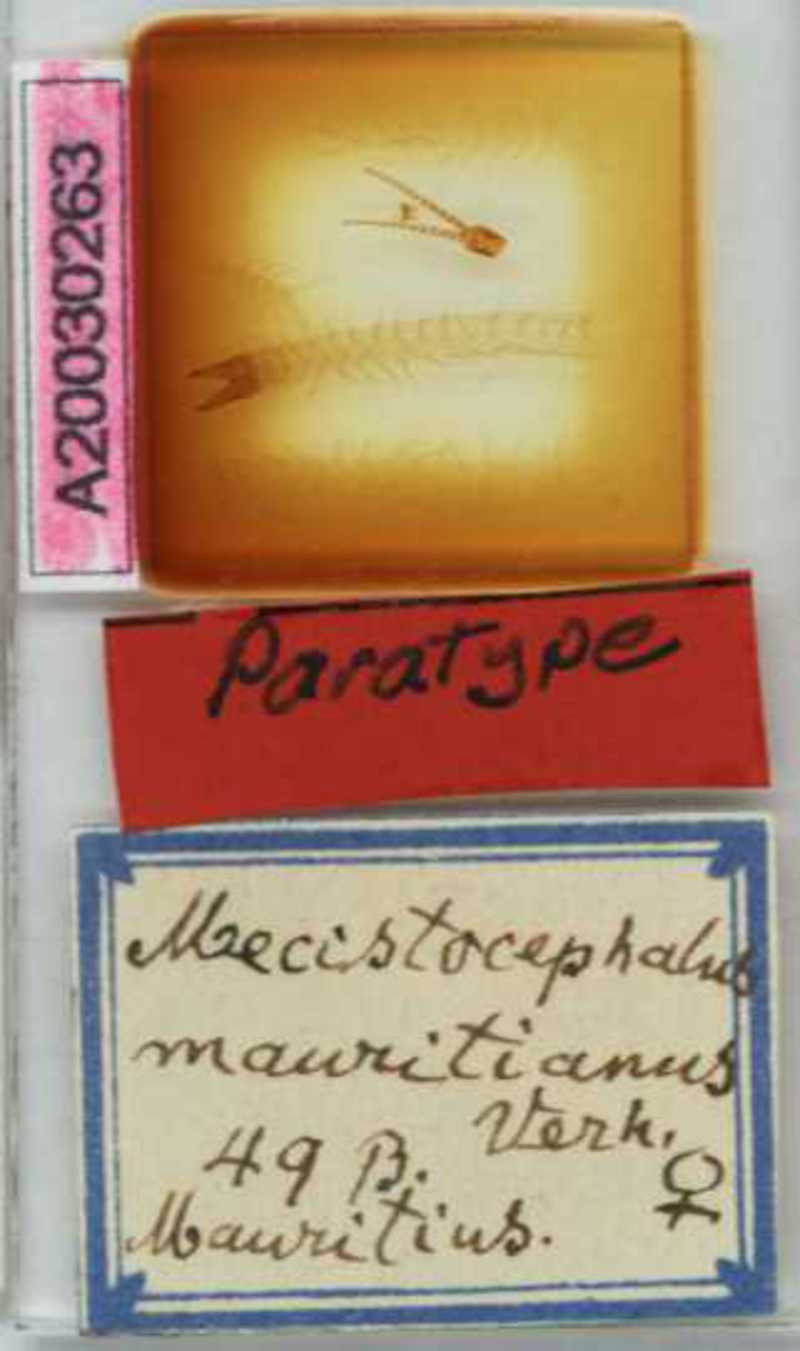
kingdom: Animalia
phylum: Arthropoda
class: Chilopoda
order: Geophilomorpha
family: Mecistocephalidae
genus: Mecistocephalus
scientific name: Mecistocephalus mauritianus
